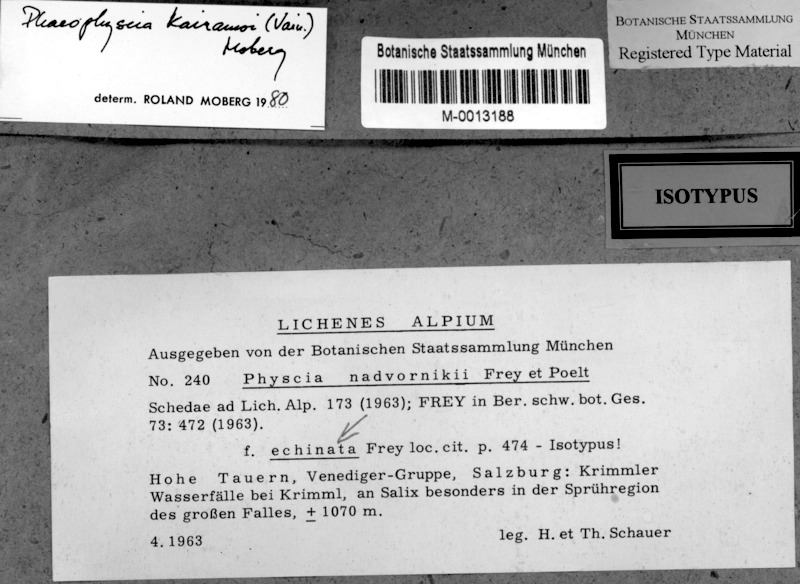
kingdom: Fungi
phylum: Ascomycota
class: Lecanoromycetes
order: Caliciales
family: Physciaceae
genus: Phaeophyscia
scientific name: Phaeophyscia kairamoi
